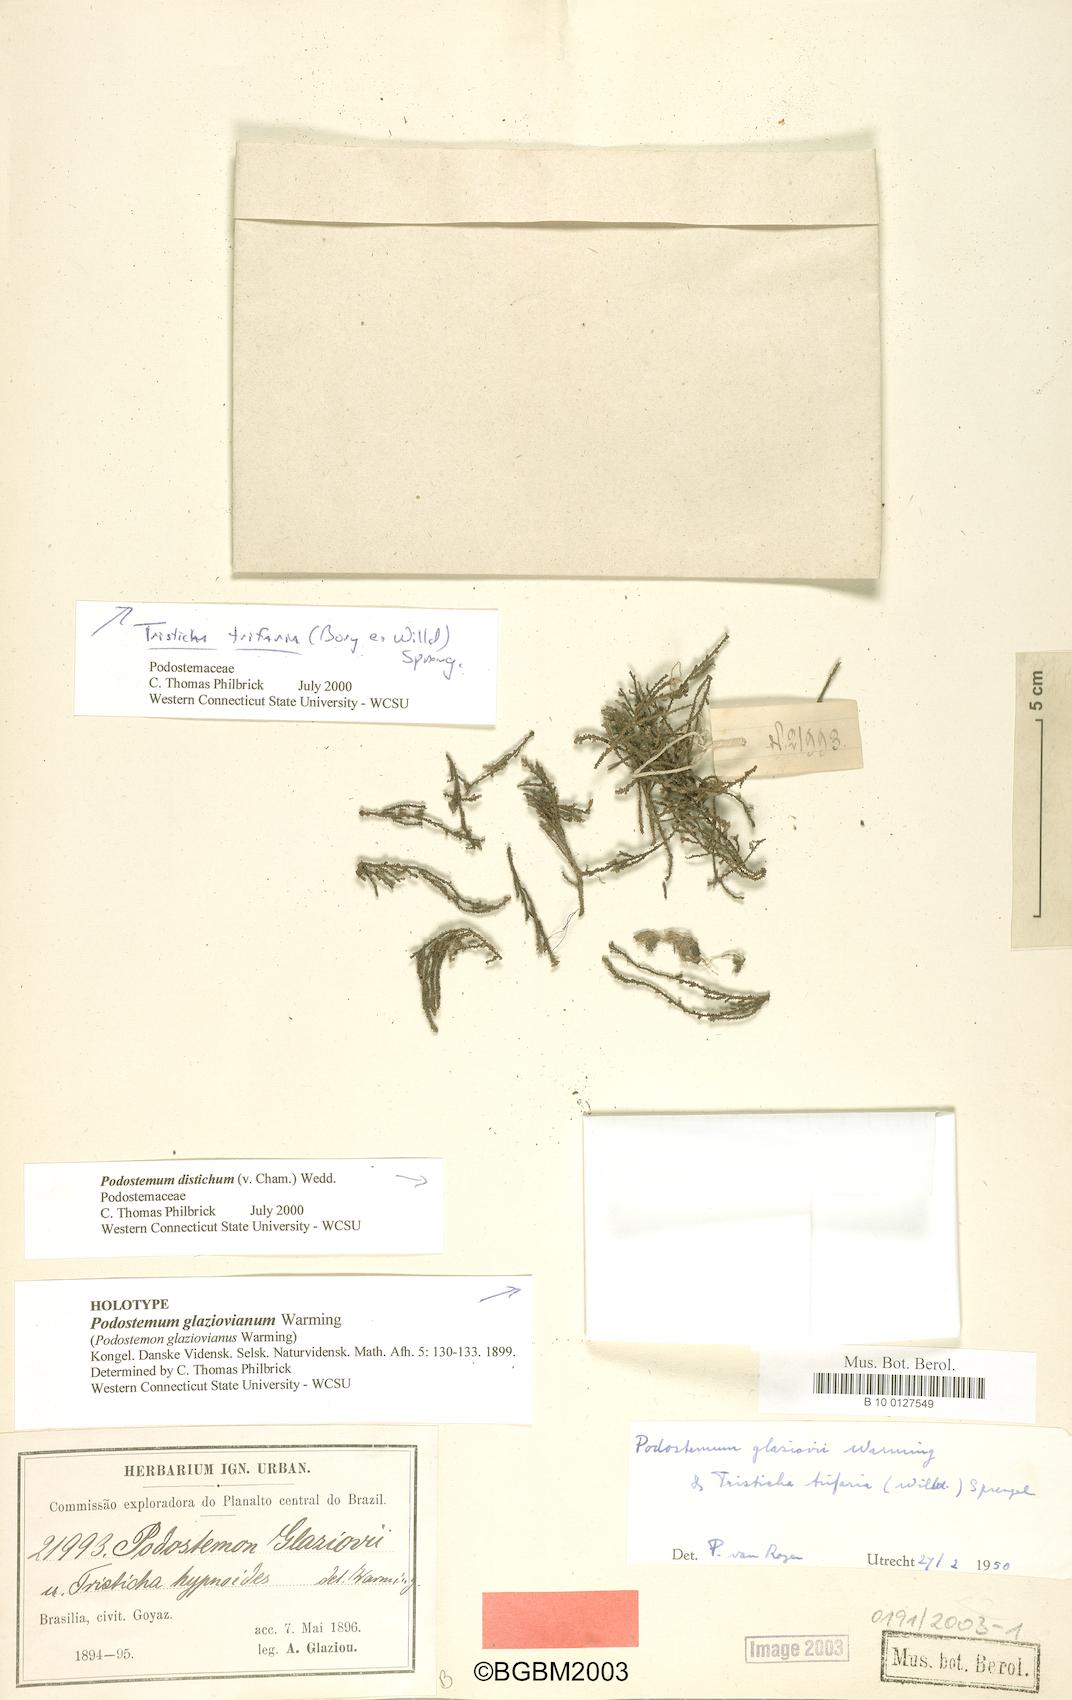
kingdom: Plantae
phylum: Tracheophyta
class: Magnoliopsida
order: Malpighiales
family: Podostemaceae
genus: Podostemum
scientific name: Podostemum distichum
